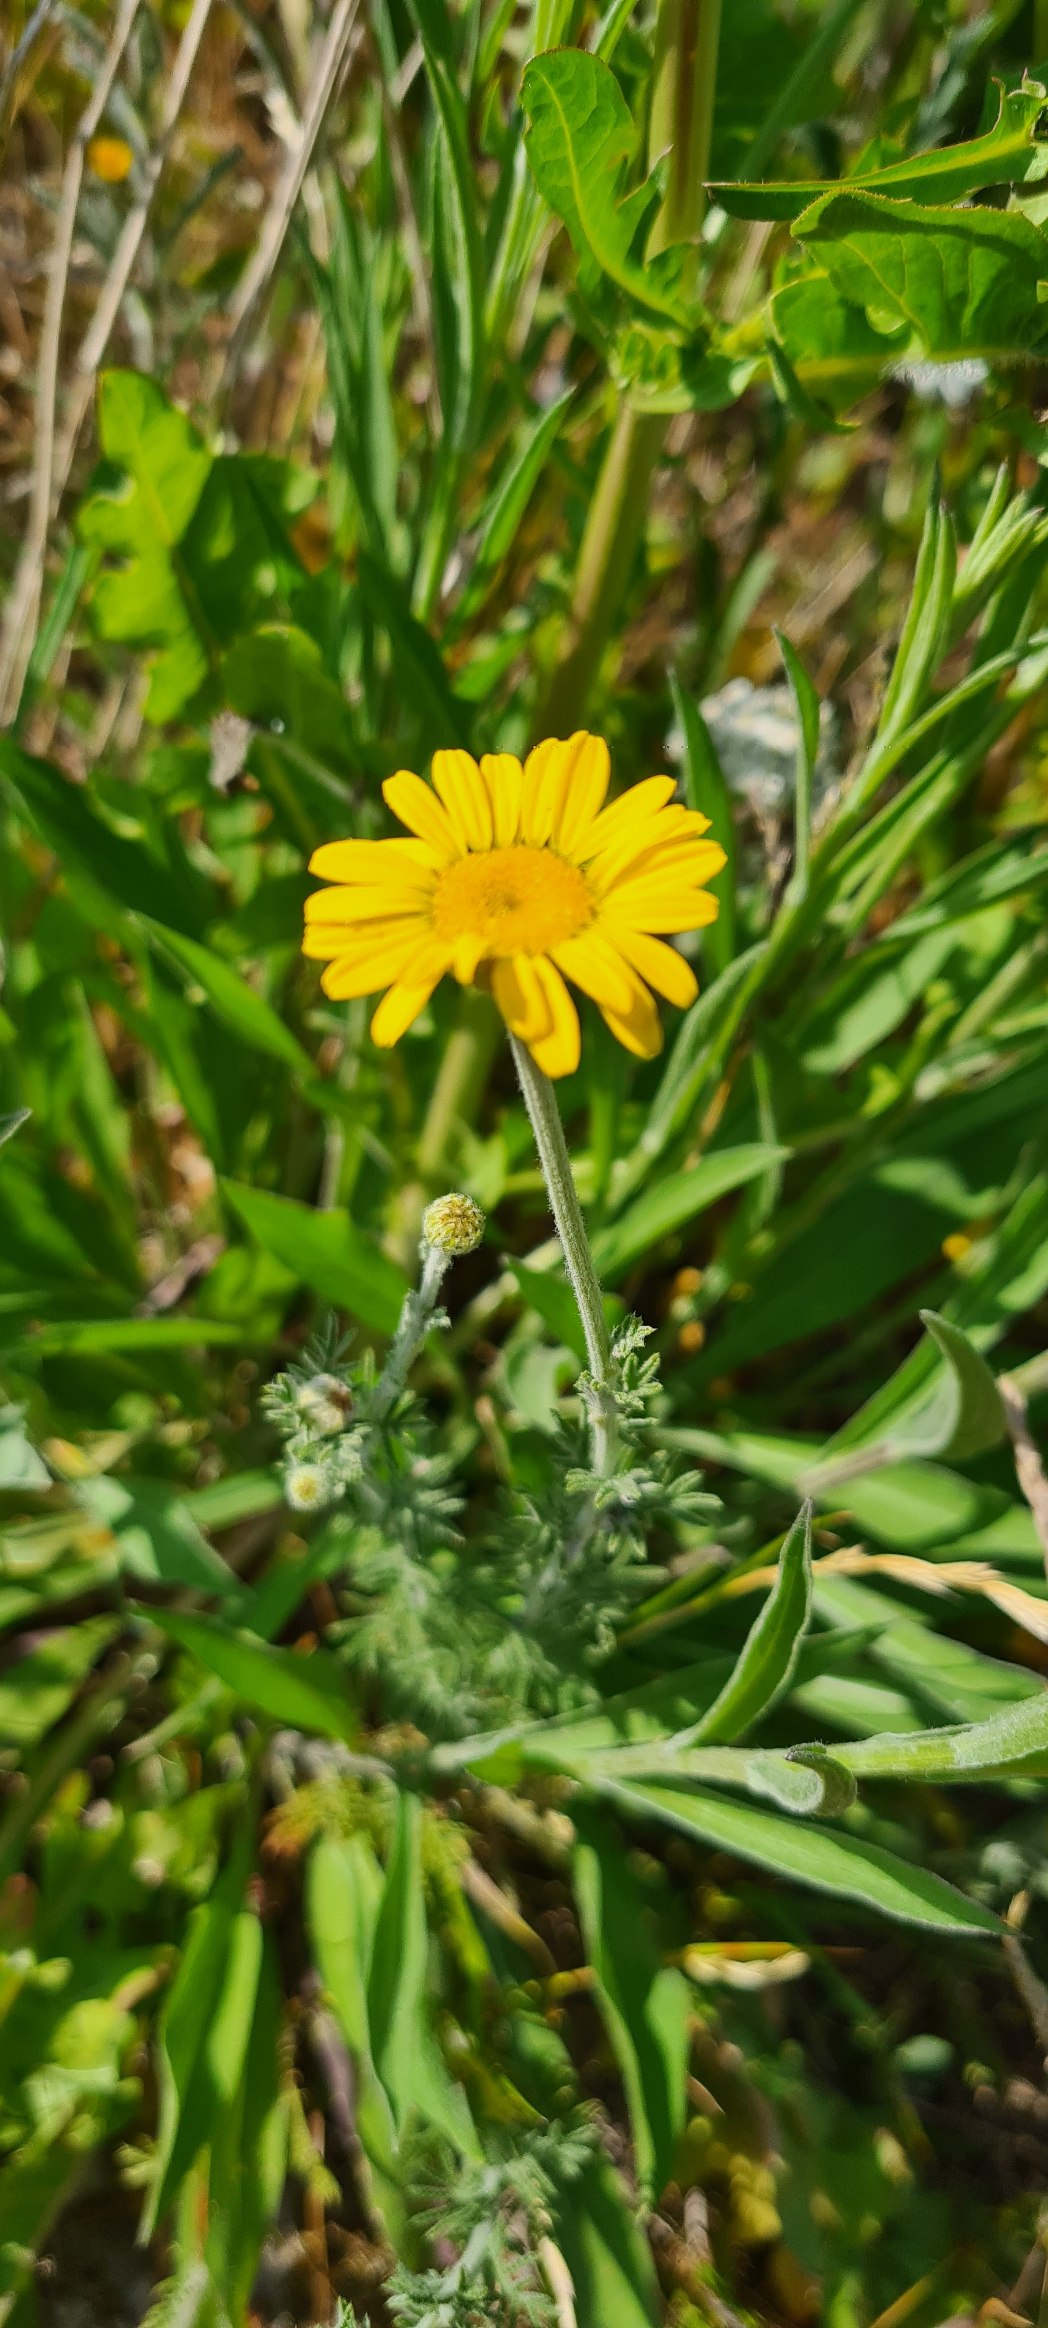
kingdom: Plantae
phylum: Tracheophyta
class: Magnoliopsida
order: Asterales
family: Asteraceae
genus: Cota
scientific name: Cota tinctoria
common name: Farve-gåseurt
